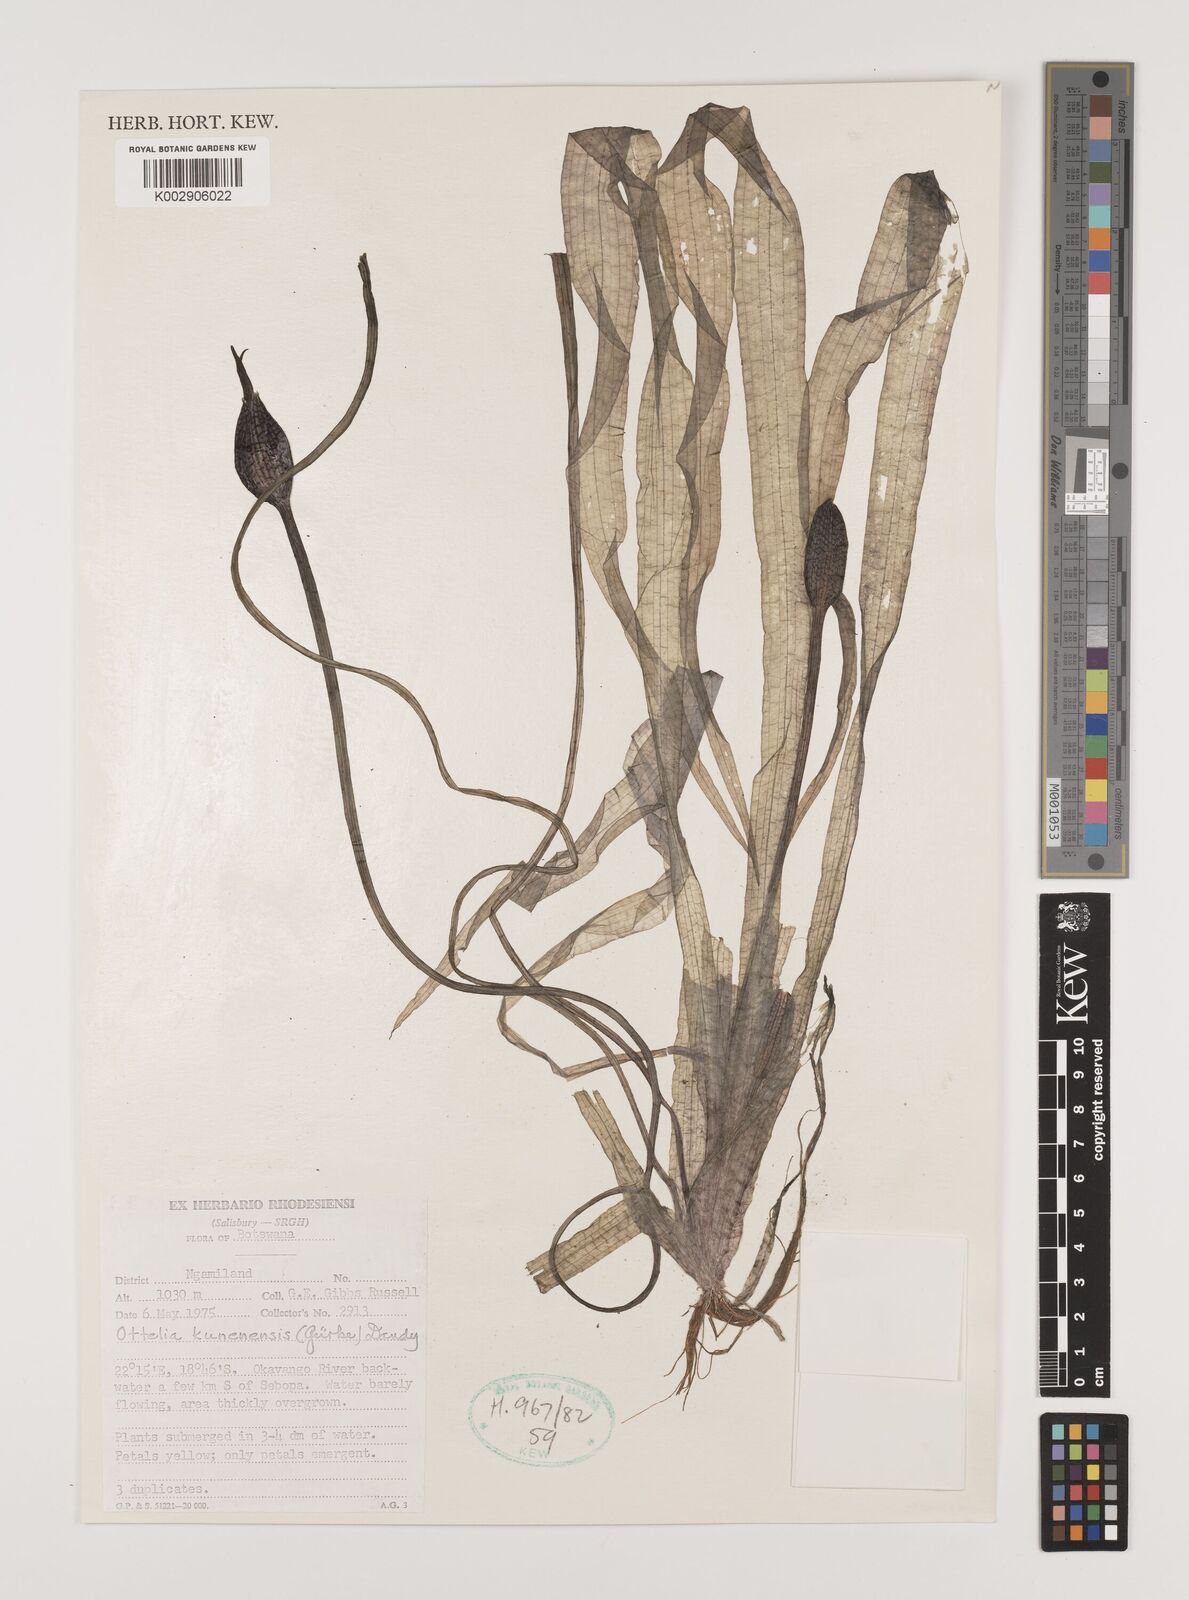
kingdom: Plantae
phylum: Tracheophyta
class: Liliopsida
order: Alismatales
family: Hydrocharitaceae
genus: Ottelia
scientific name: Ottelia kunenensis
